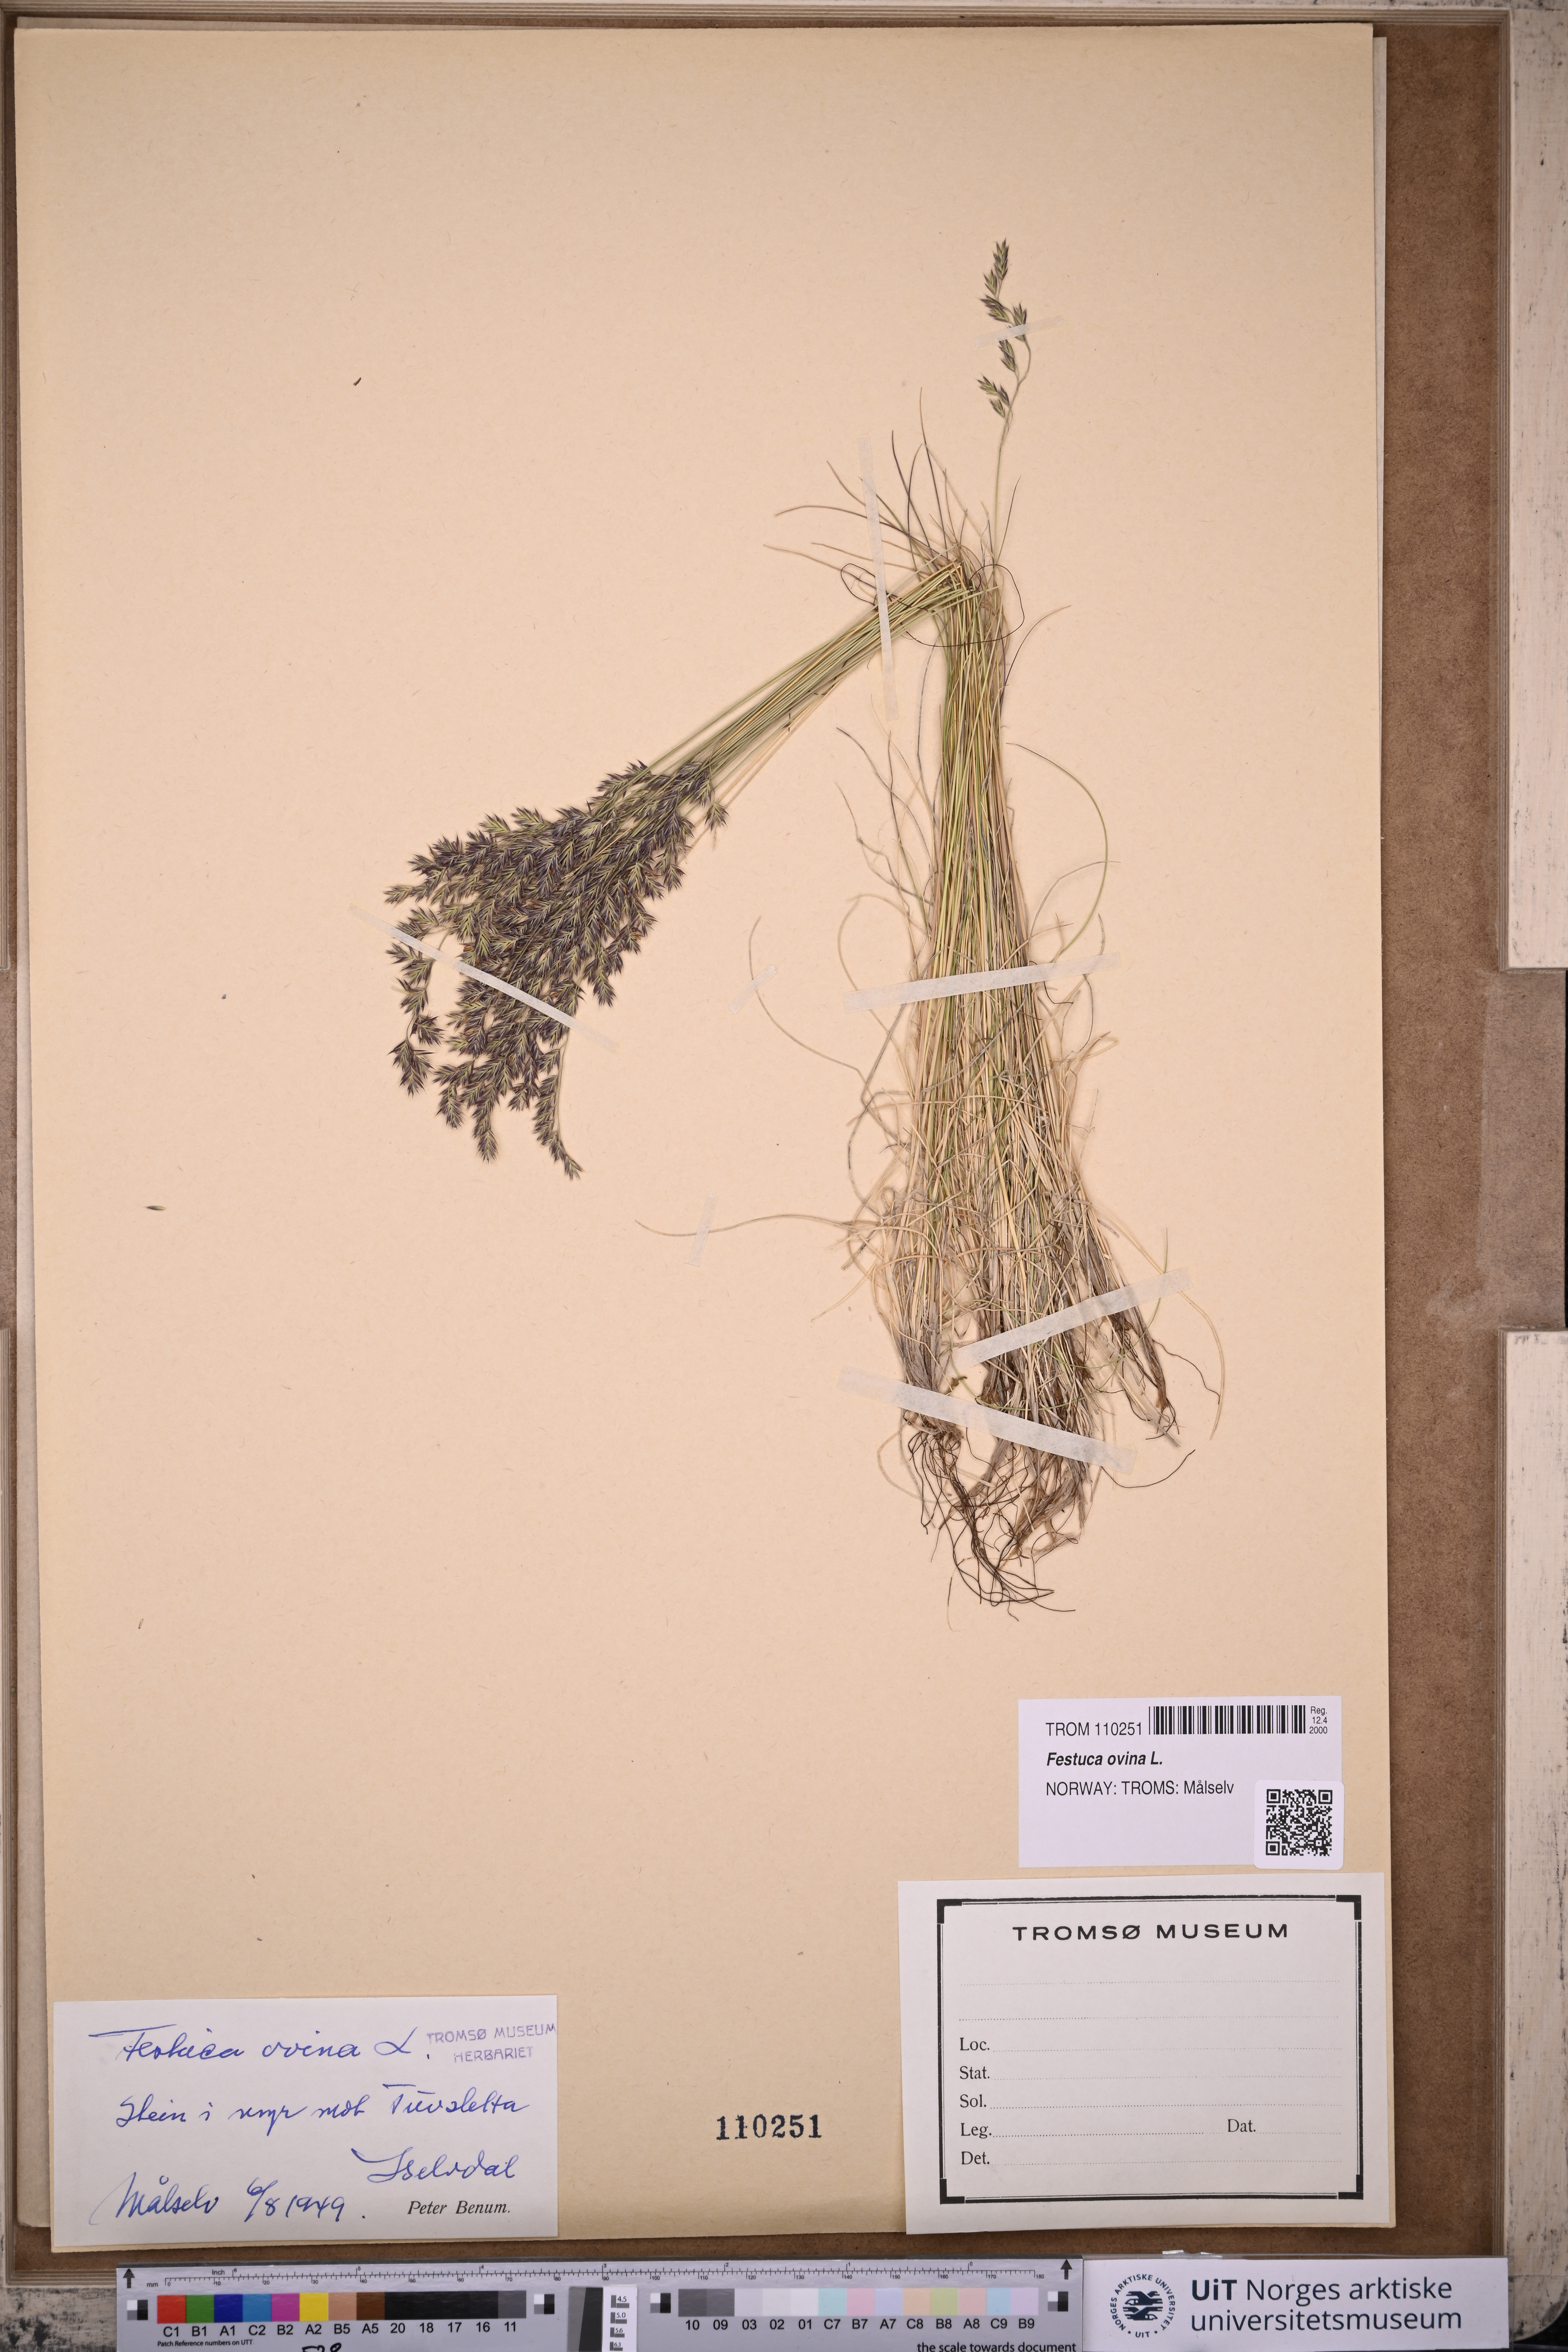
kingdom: Plantae
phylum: Tracheophyta
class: Liliopsida
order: Poales
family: Poaceae
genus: Festuca
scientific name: Festuca ovina
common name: Sheep fescue
